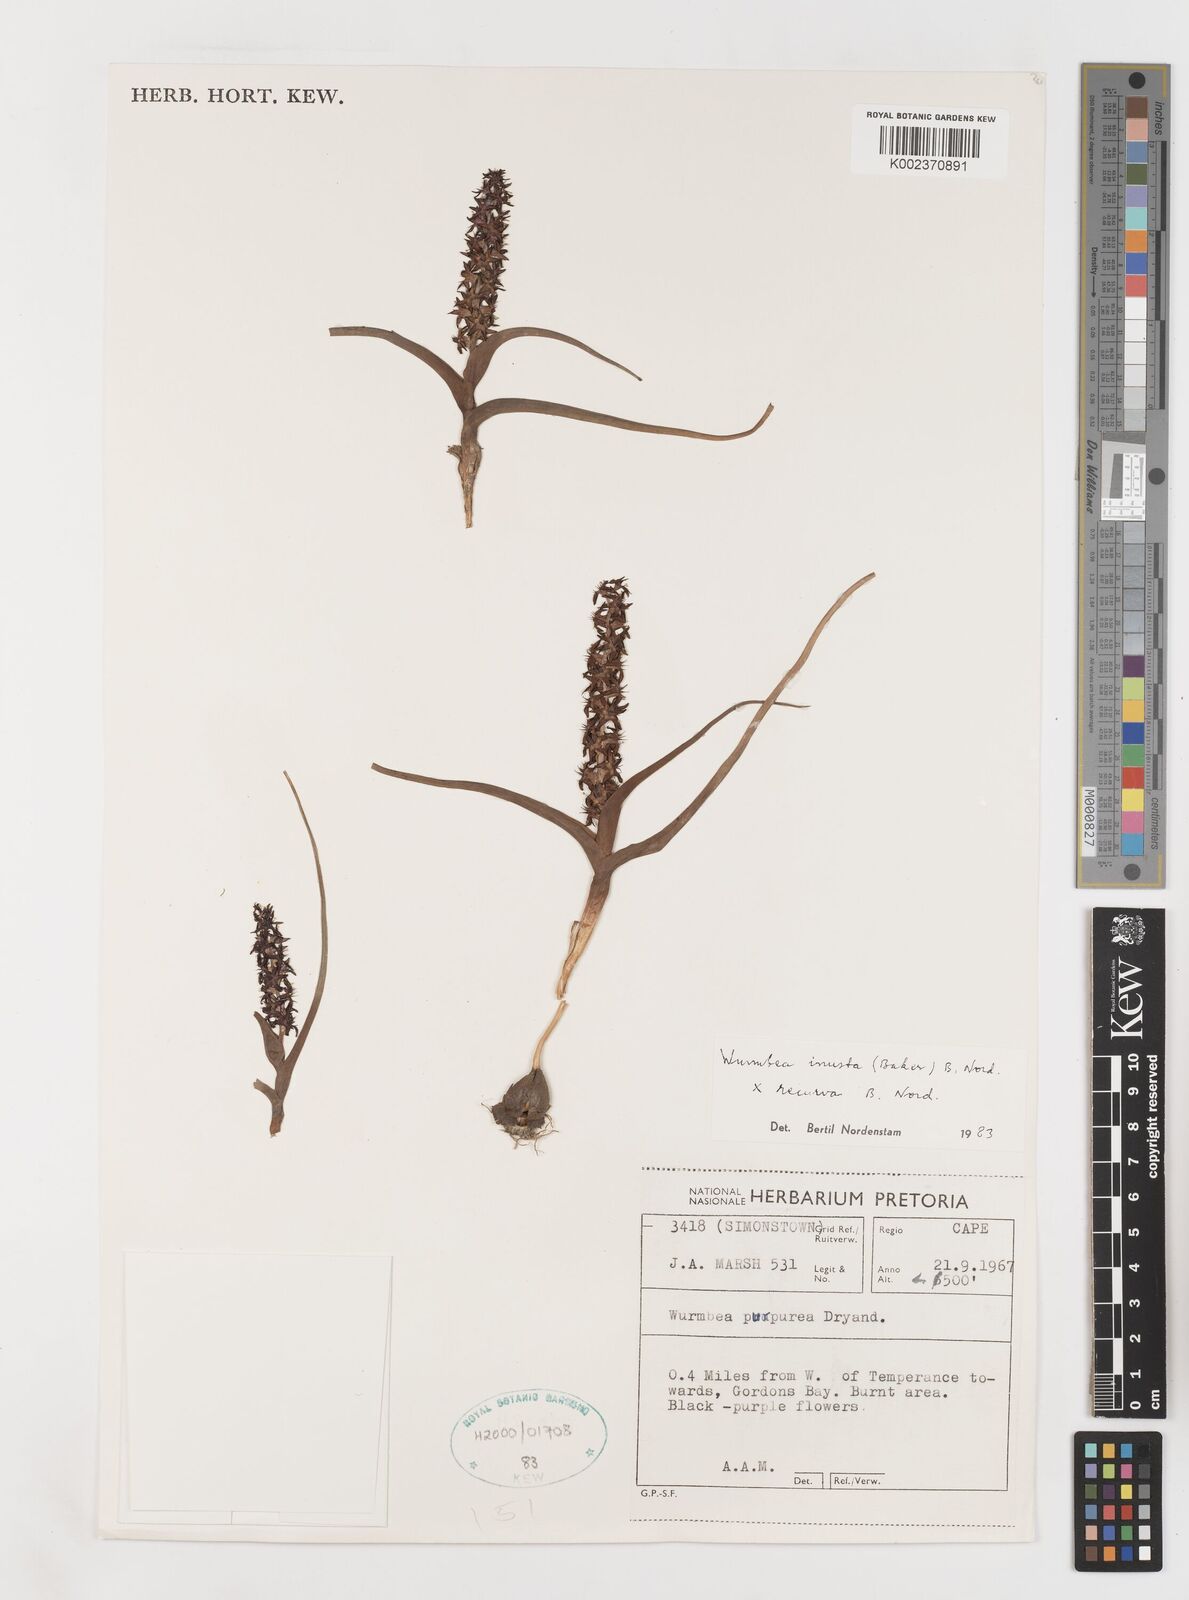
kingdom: Plantae
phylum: Tracheophyta
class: Liliopsida
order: Liliales
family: Colchicaceae
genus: Wurmbea
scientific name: Wurmbea inusta
